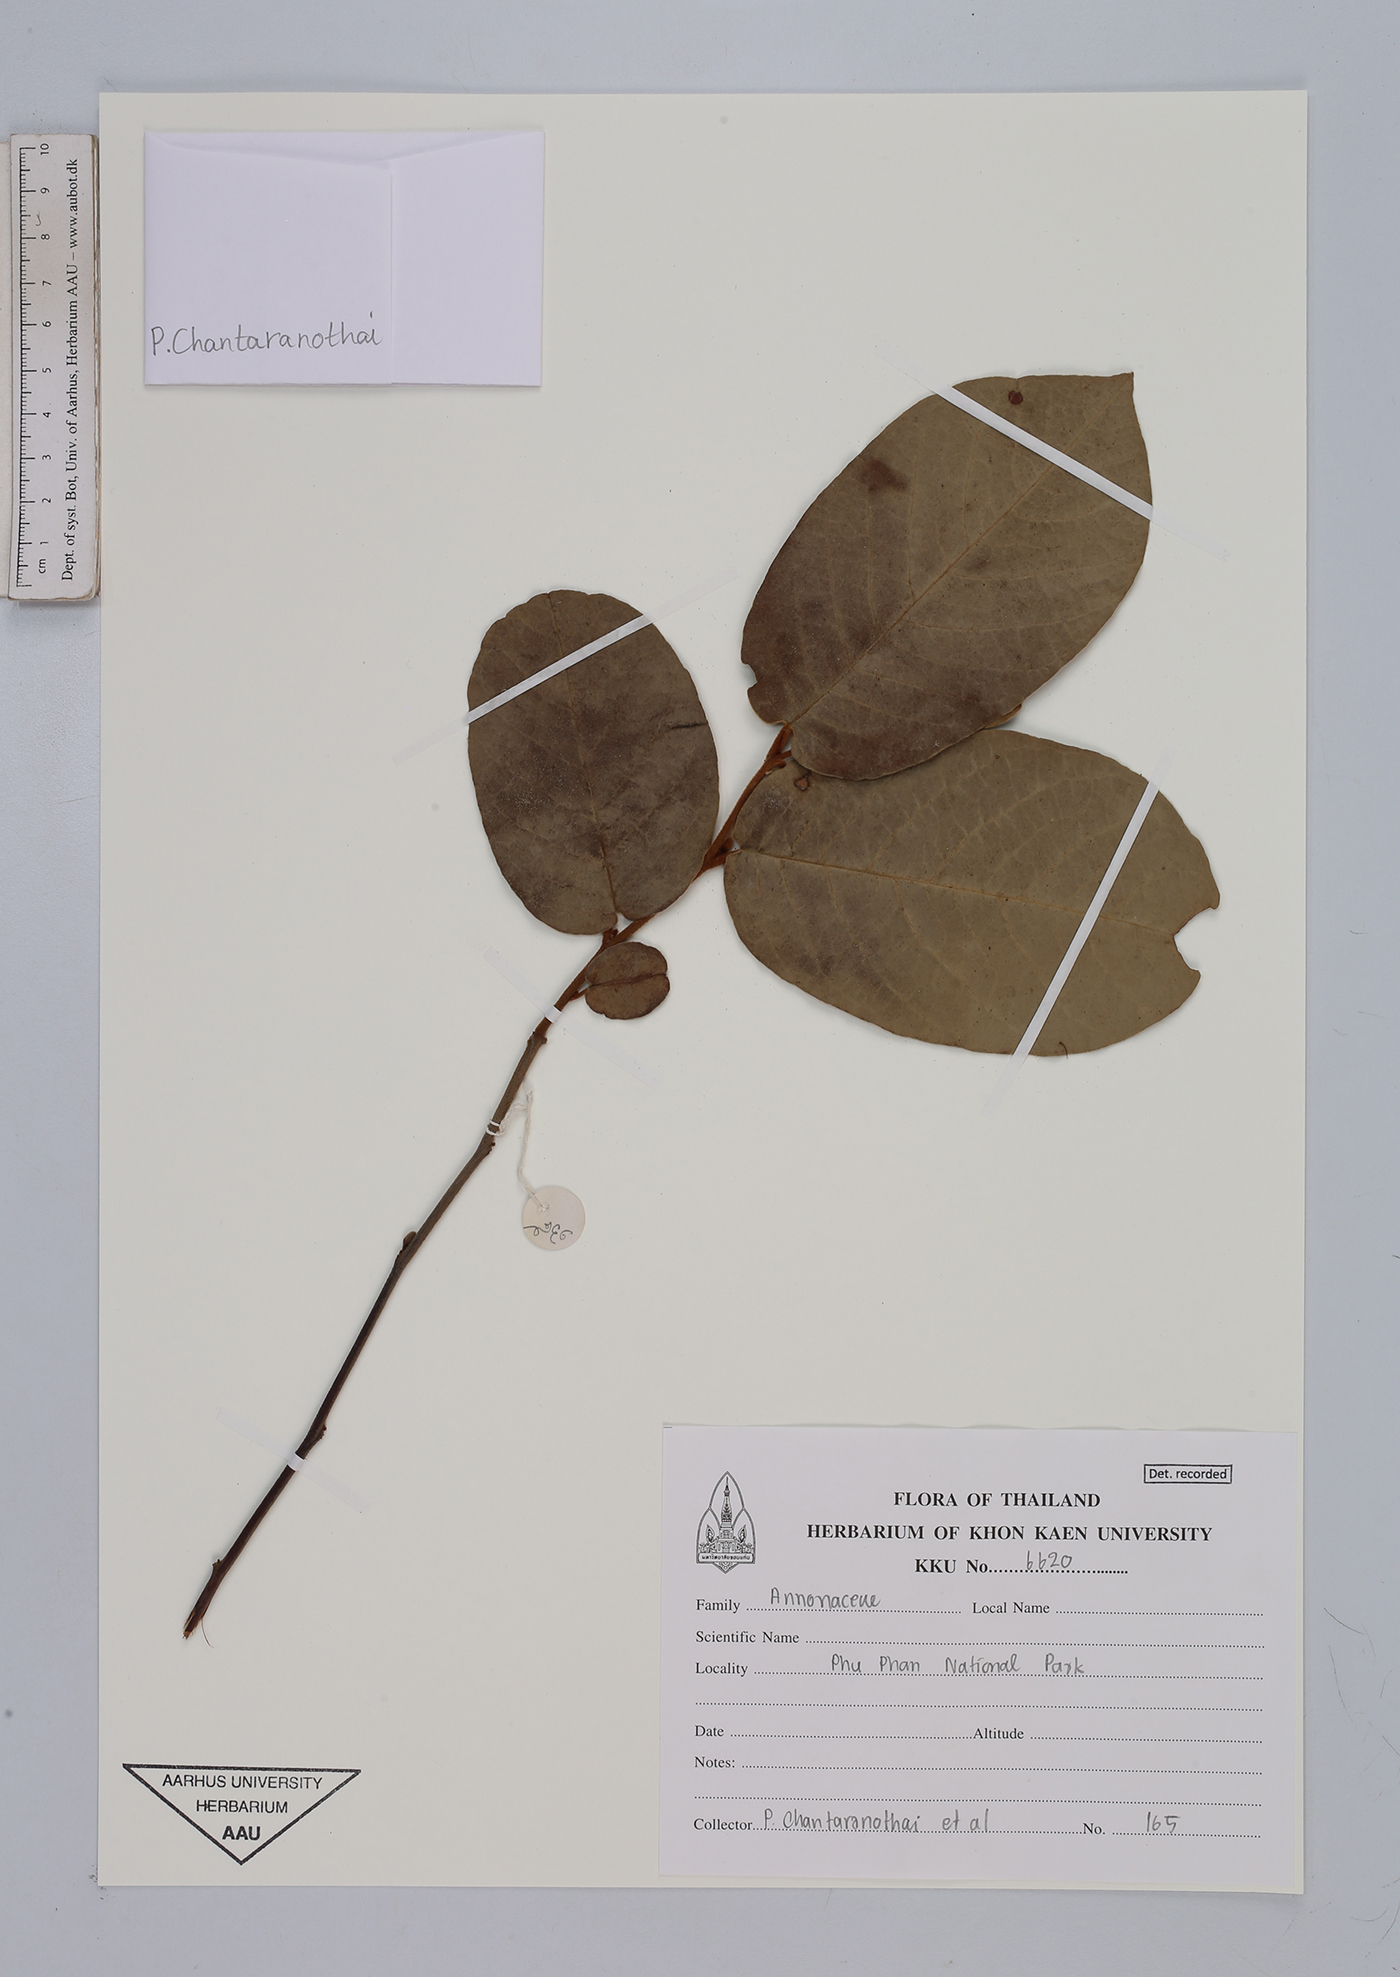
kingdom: Plantae
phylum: Tracheophyta
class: Magnoliopsida
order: Magnoliales
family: Annonaceae
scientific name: Annonaceae
